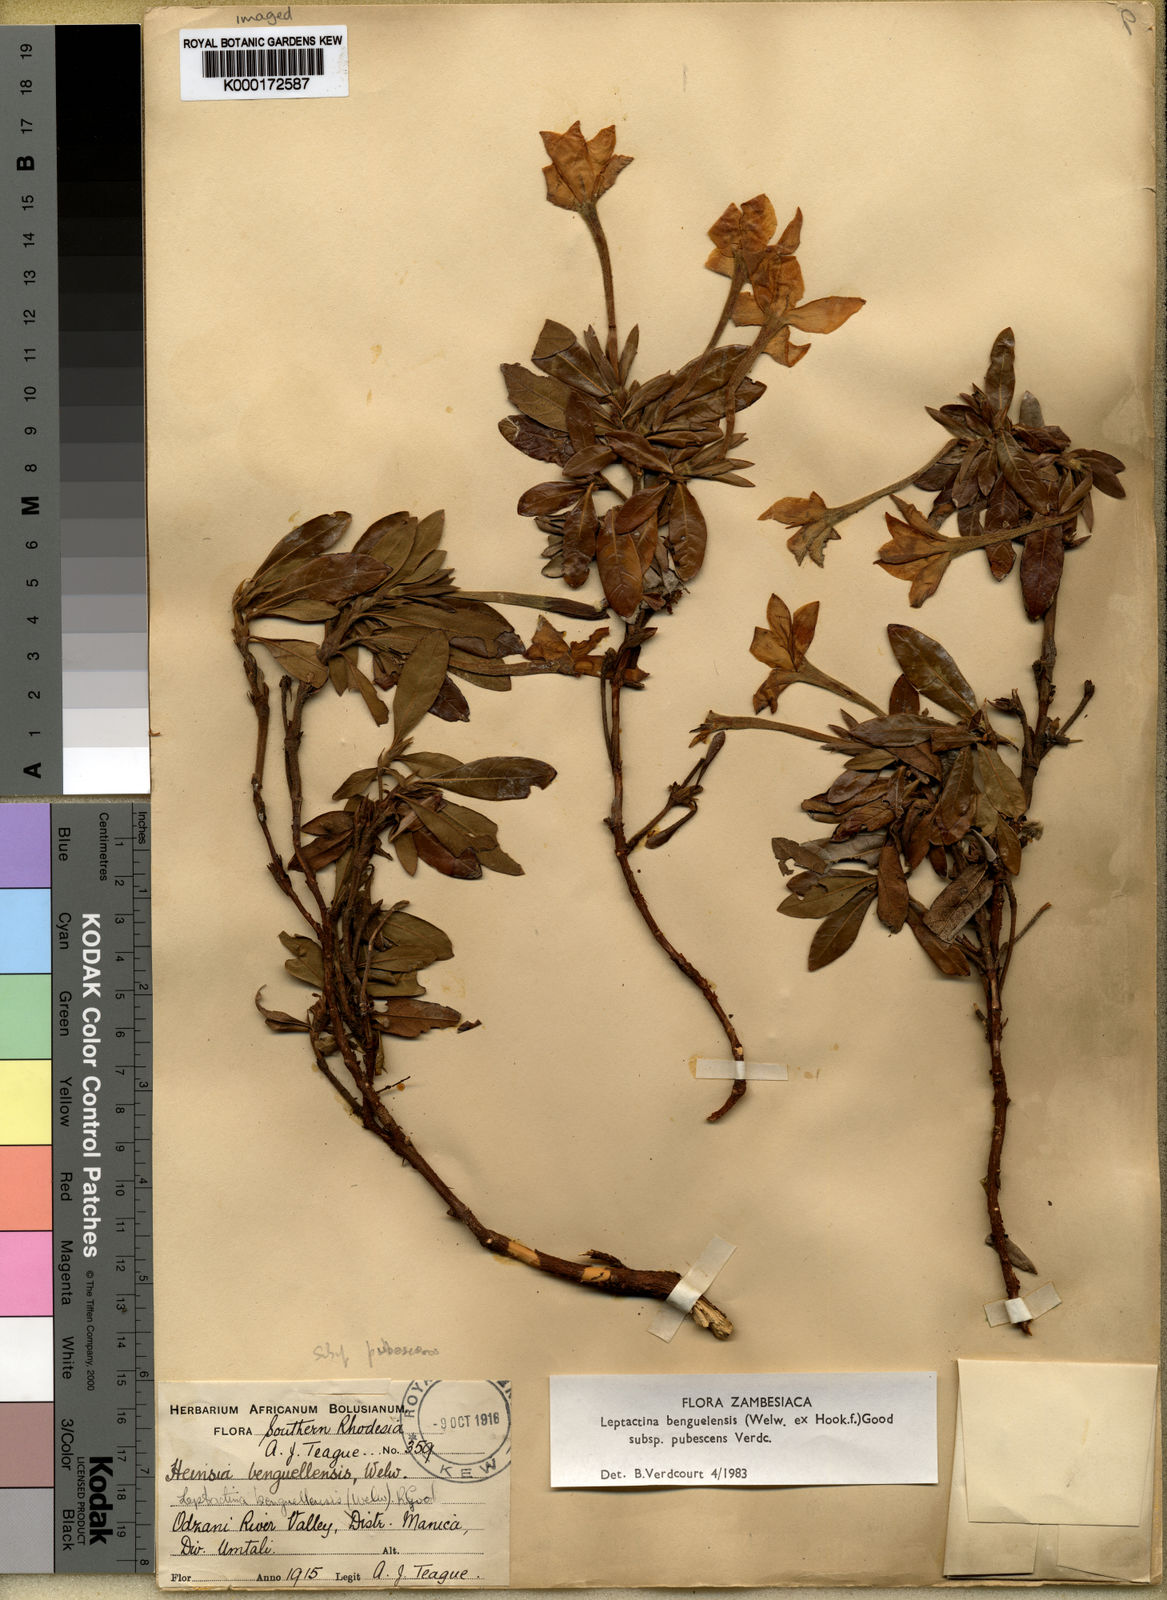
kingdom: Plantae
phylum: Tracheophyta
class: Magnoliopsida
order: Gentianales
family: Rubiaceae
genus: Leptactina
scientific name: Leptactina benguelensis
